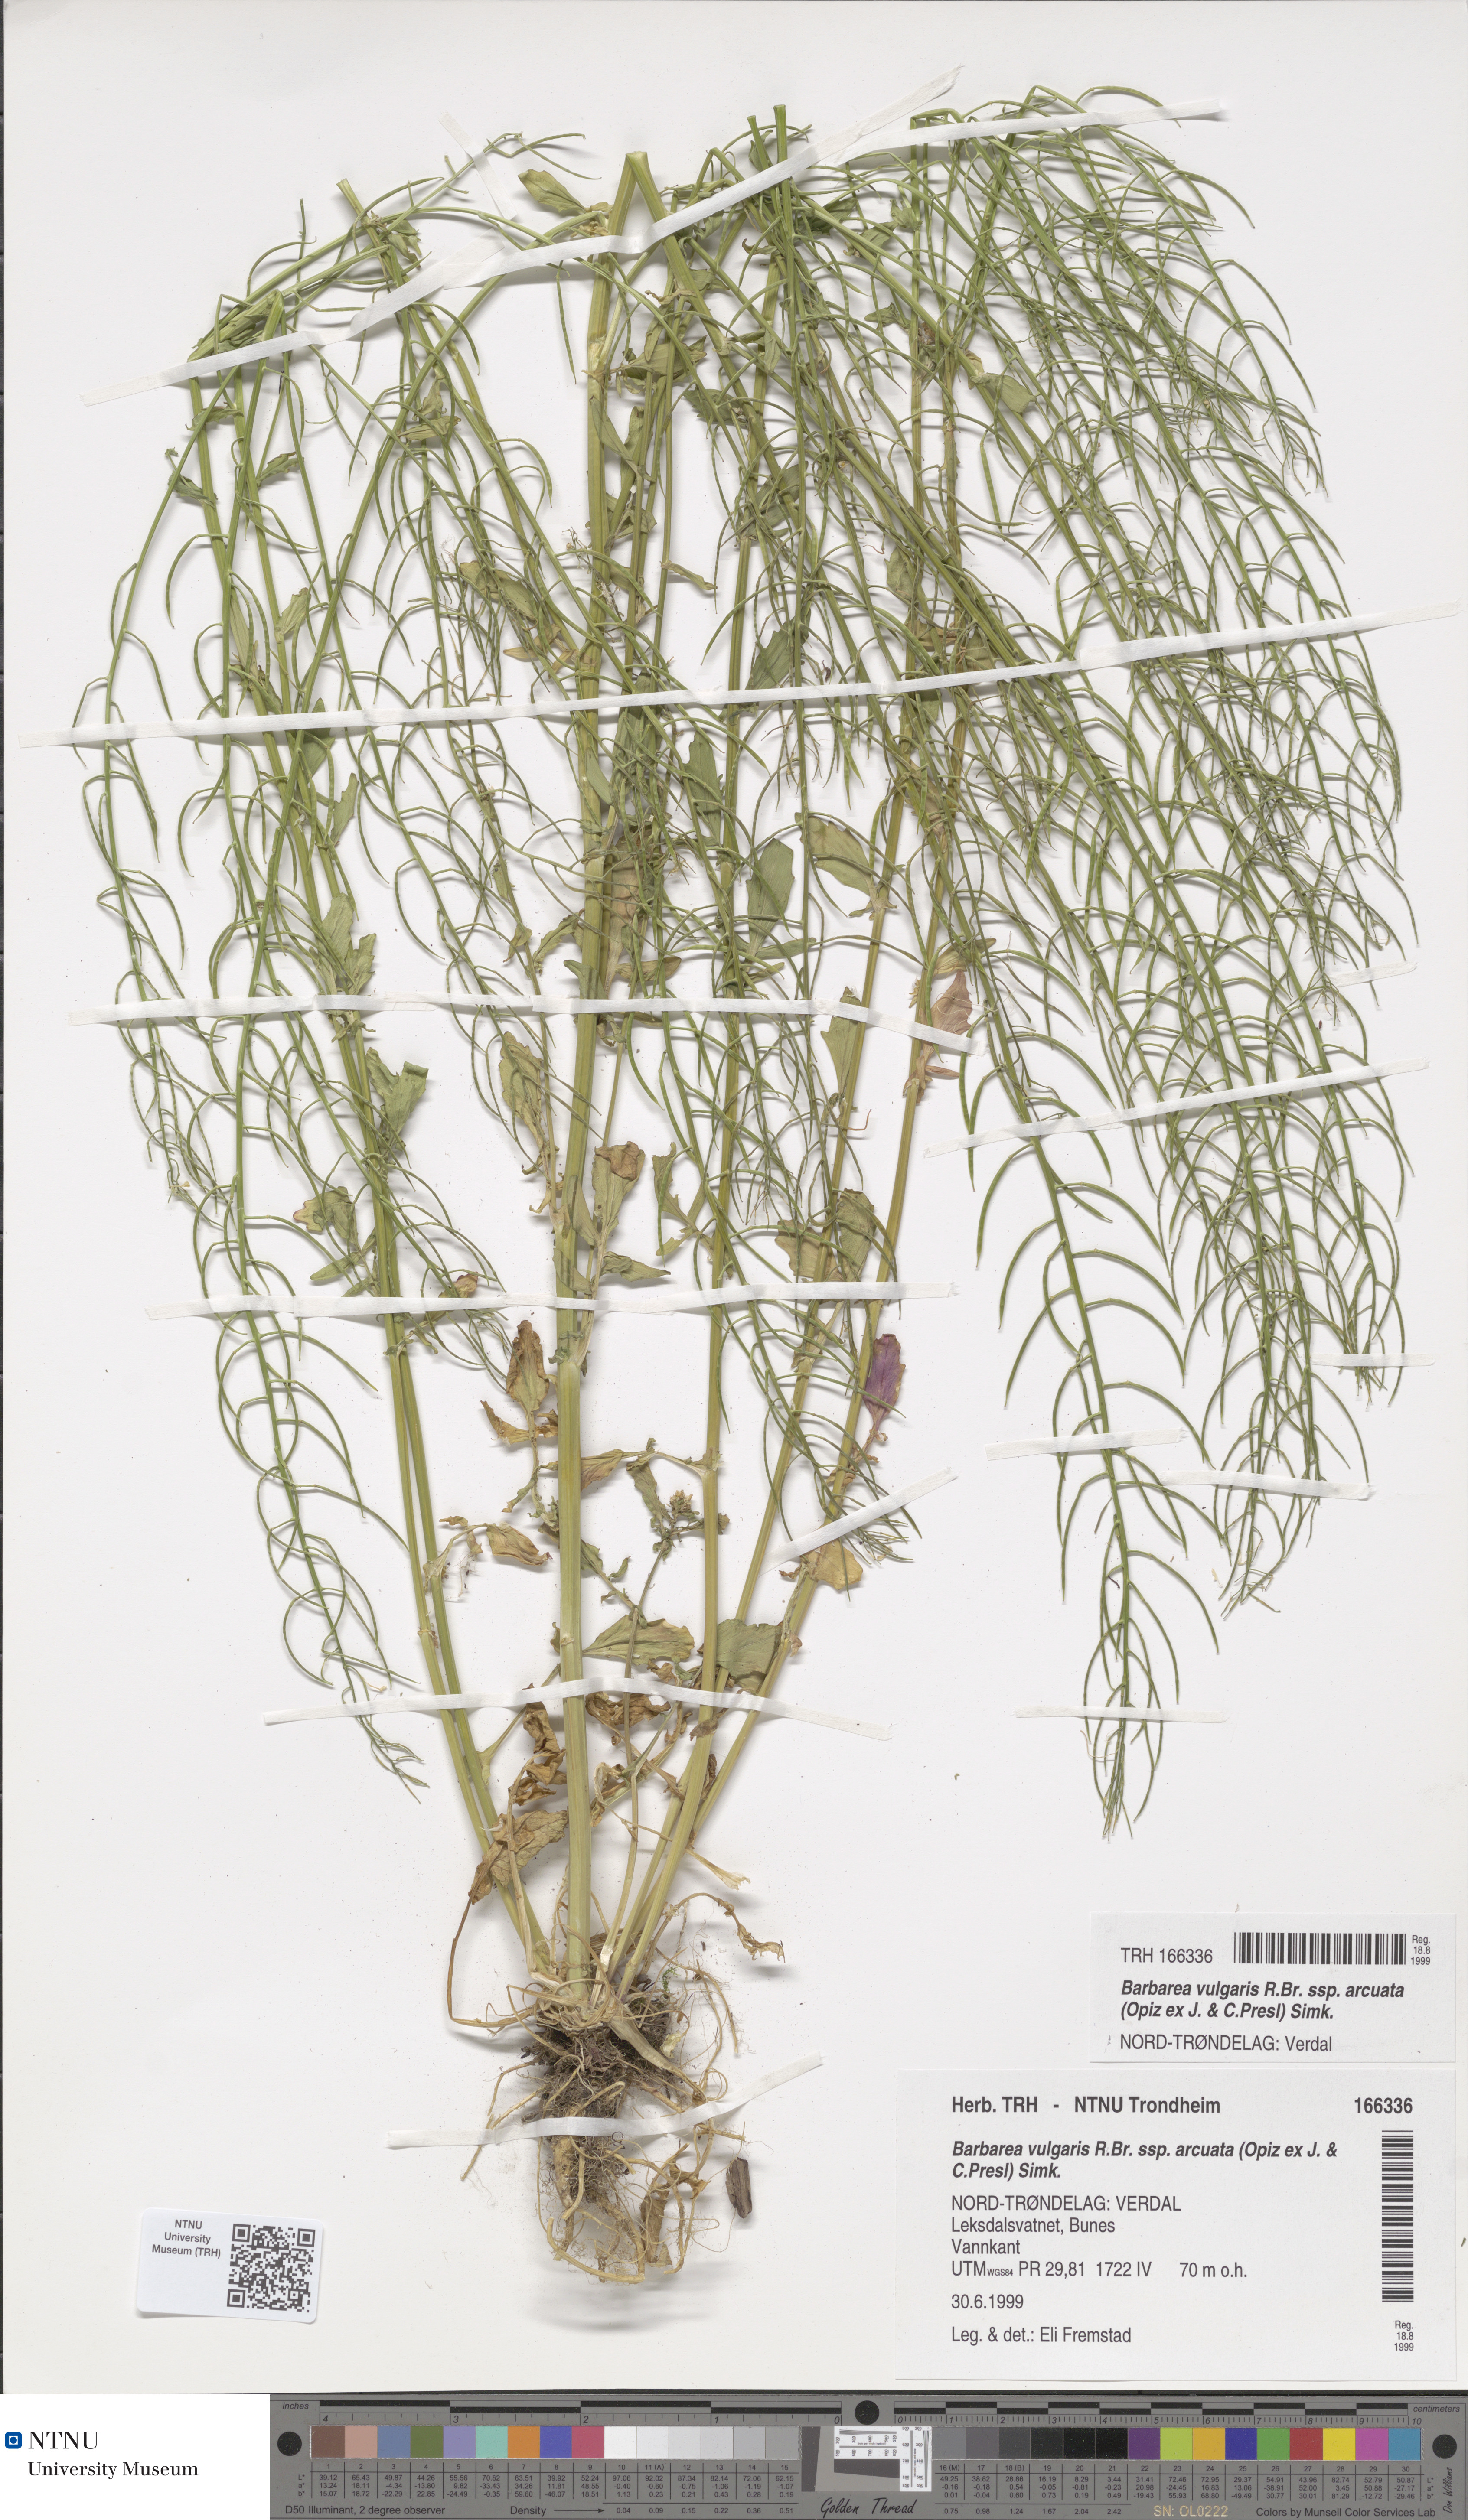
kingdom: Plantae
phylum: Tracheophyta
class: Magnoliopsida
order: Brassicales
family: Brassicaceae
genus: Barbarea
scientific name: Barbarea vulgaris
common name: Cressy-greens
